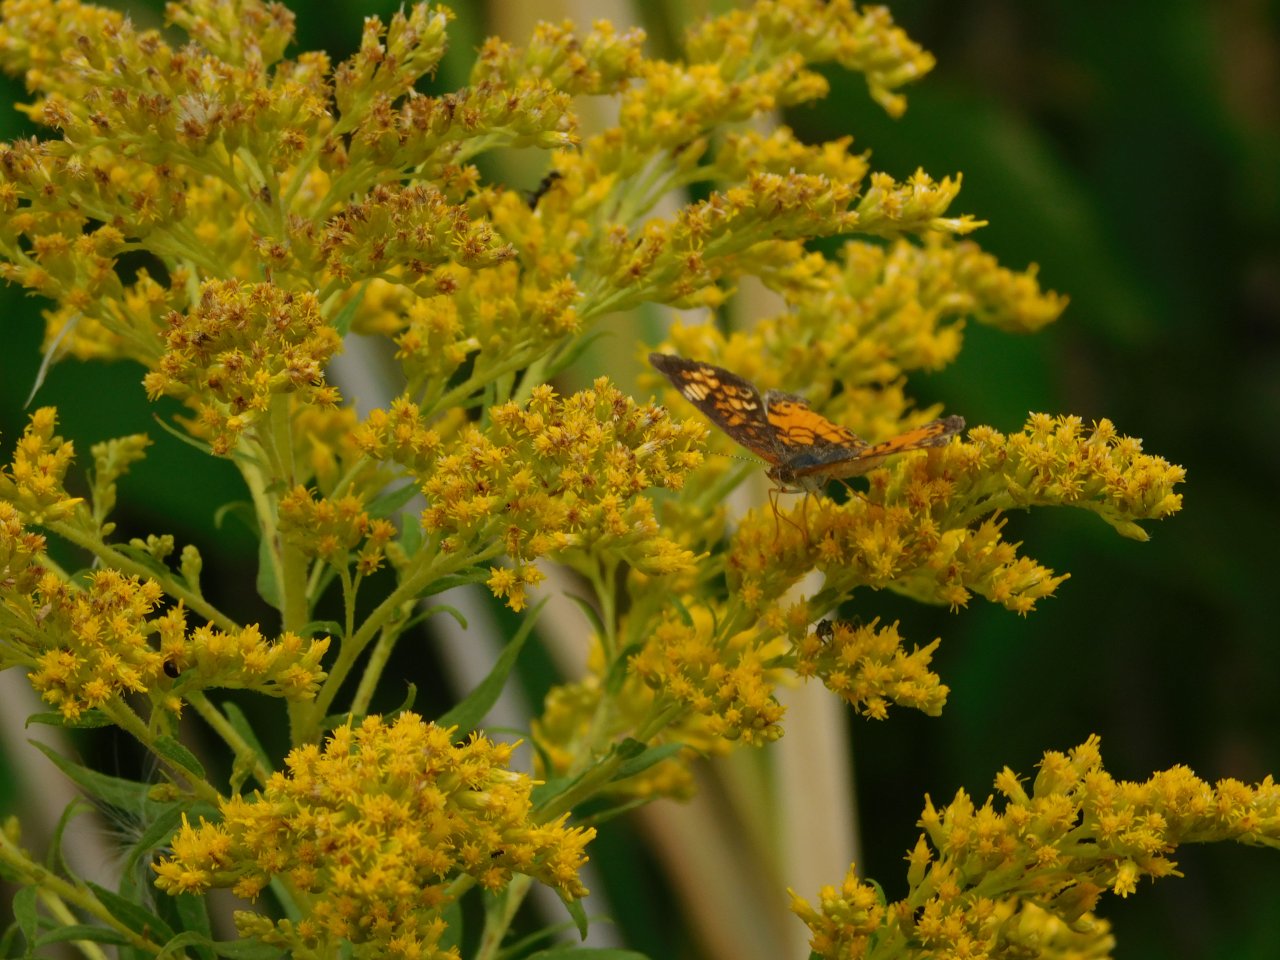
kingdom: Animalia
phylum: Arthropoda
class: Insecta
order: Lepidoptera
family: Nymphalidae
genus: Phyciodes
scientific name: Phyciodes
